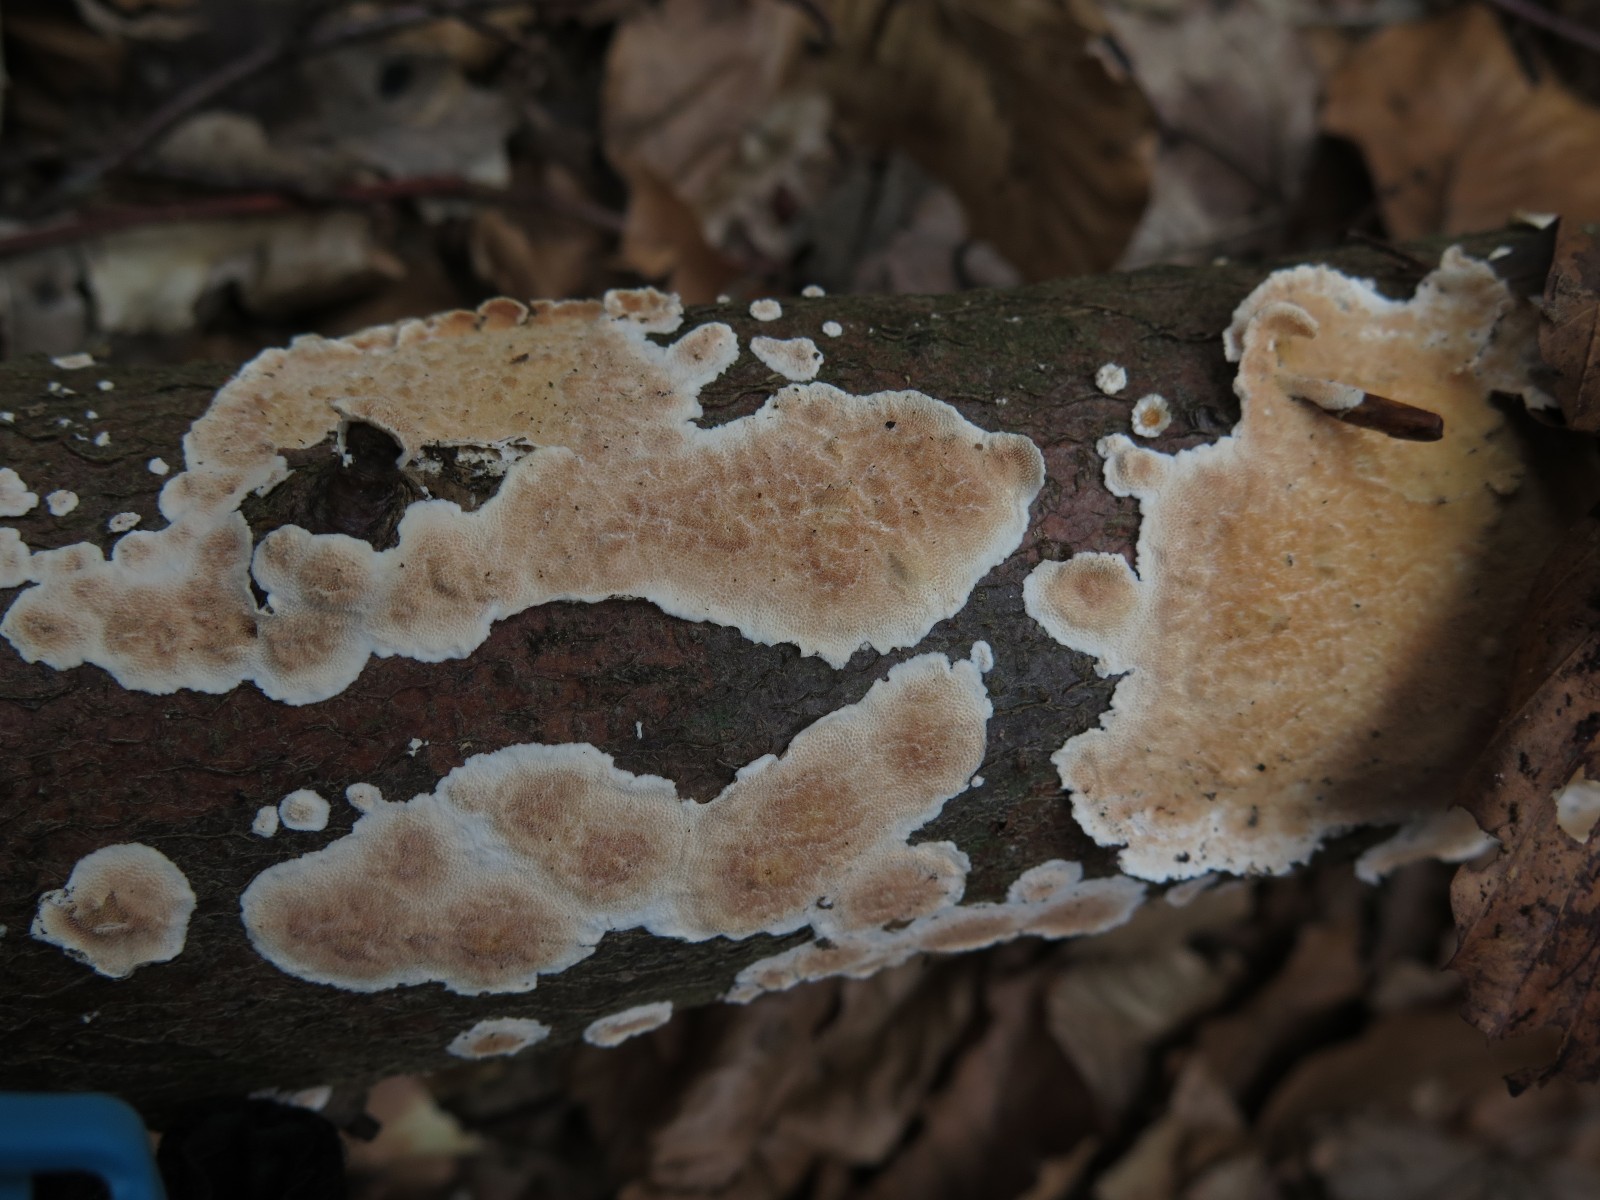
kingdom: Fungi
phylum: Basidiomycota
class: Agaricomycetes
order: Polyporales
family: Steccherinaceae
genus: Steccherinum
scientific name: Steccherinum ochraceum
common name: almindelig skønpig
